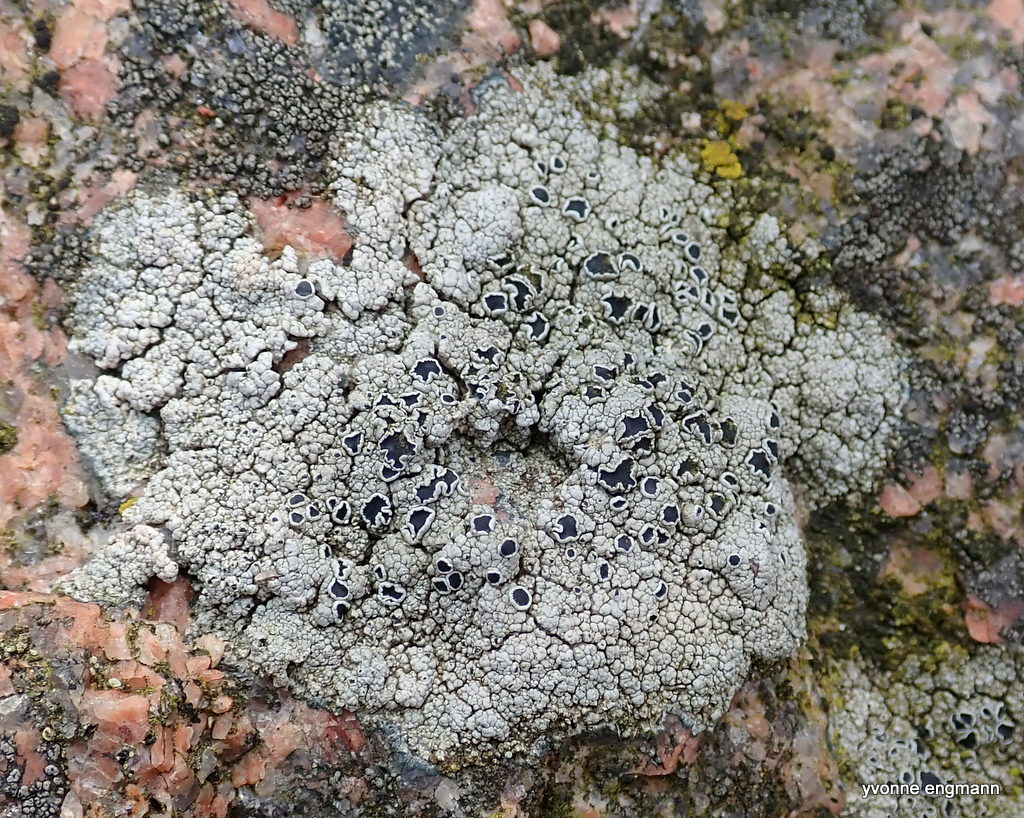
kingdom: Fungi
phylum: Ascomycota
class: Lecanoromycetes
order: Lecanorales
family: Tephromelataceae
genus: Tephromela
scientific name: Tephromela atra
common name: sortfrugtet kantskivelav
